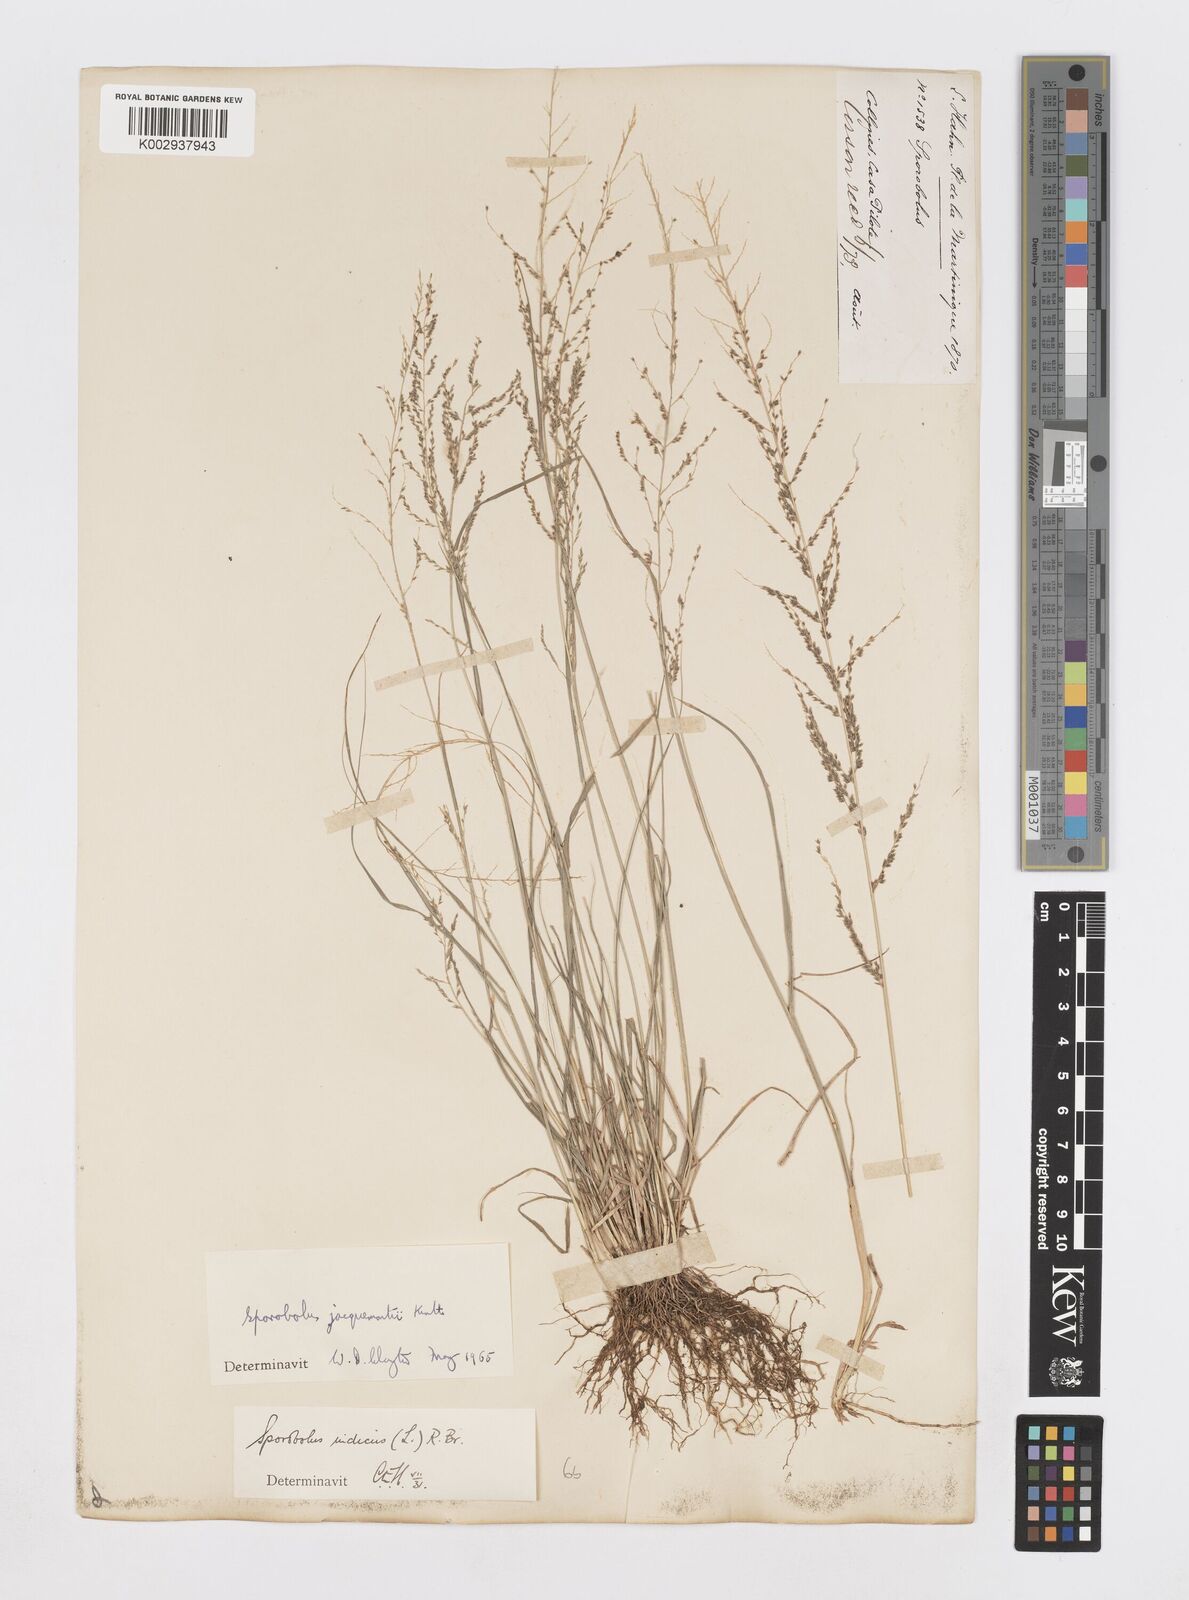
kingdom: Plantae
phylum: Tracheophyta
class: Liliopsida
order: Poales
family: Poaceae
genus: Sporobolus
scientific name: Sporobolus pyramidalis
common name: West indian dropseed
